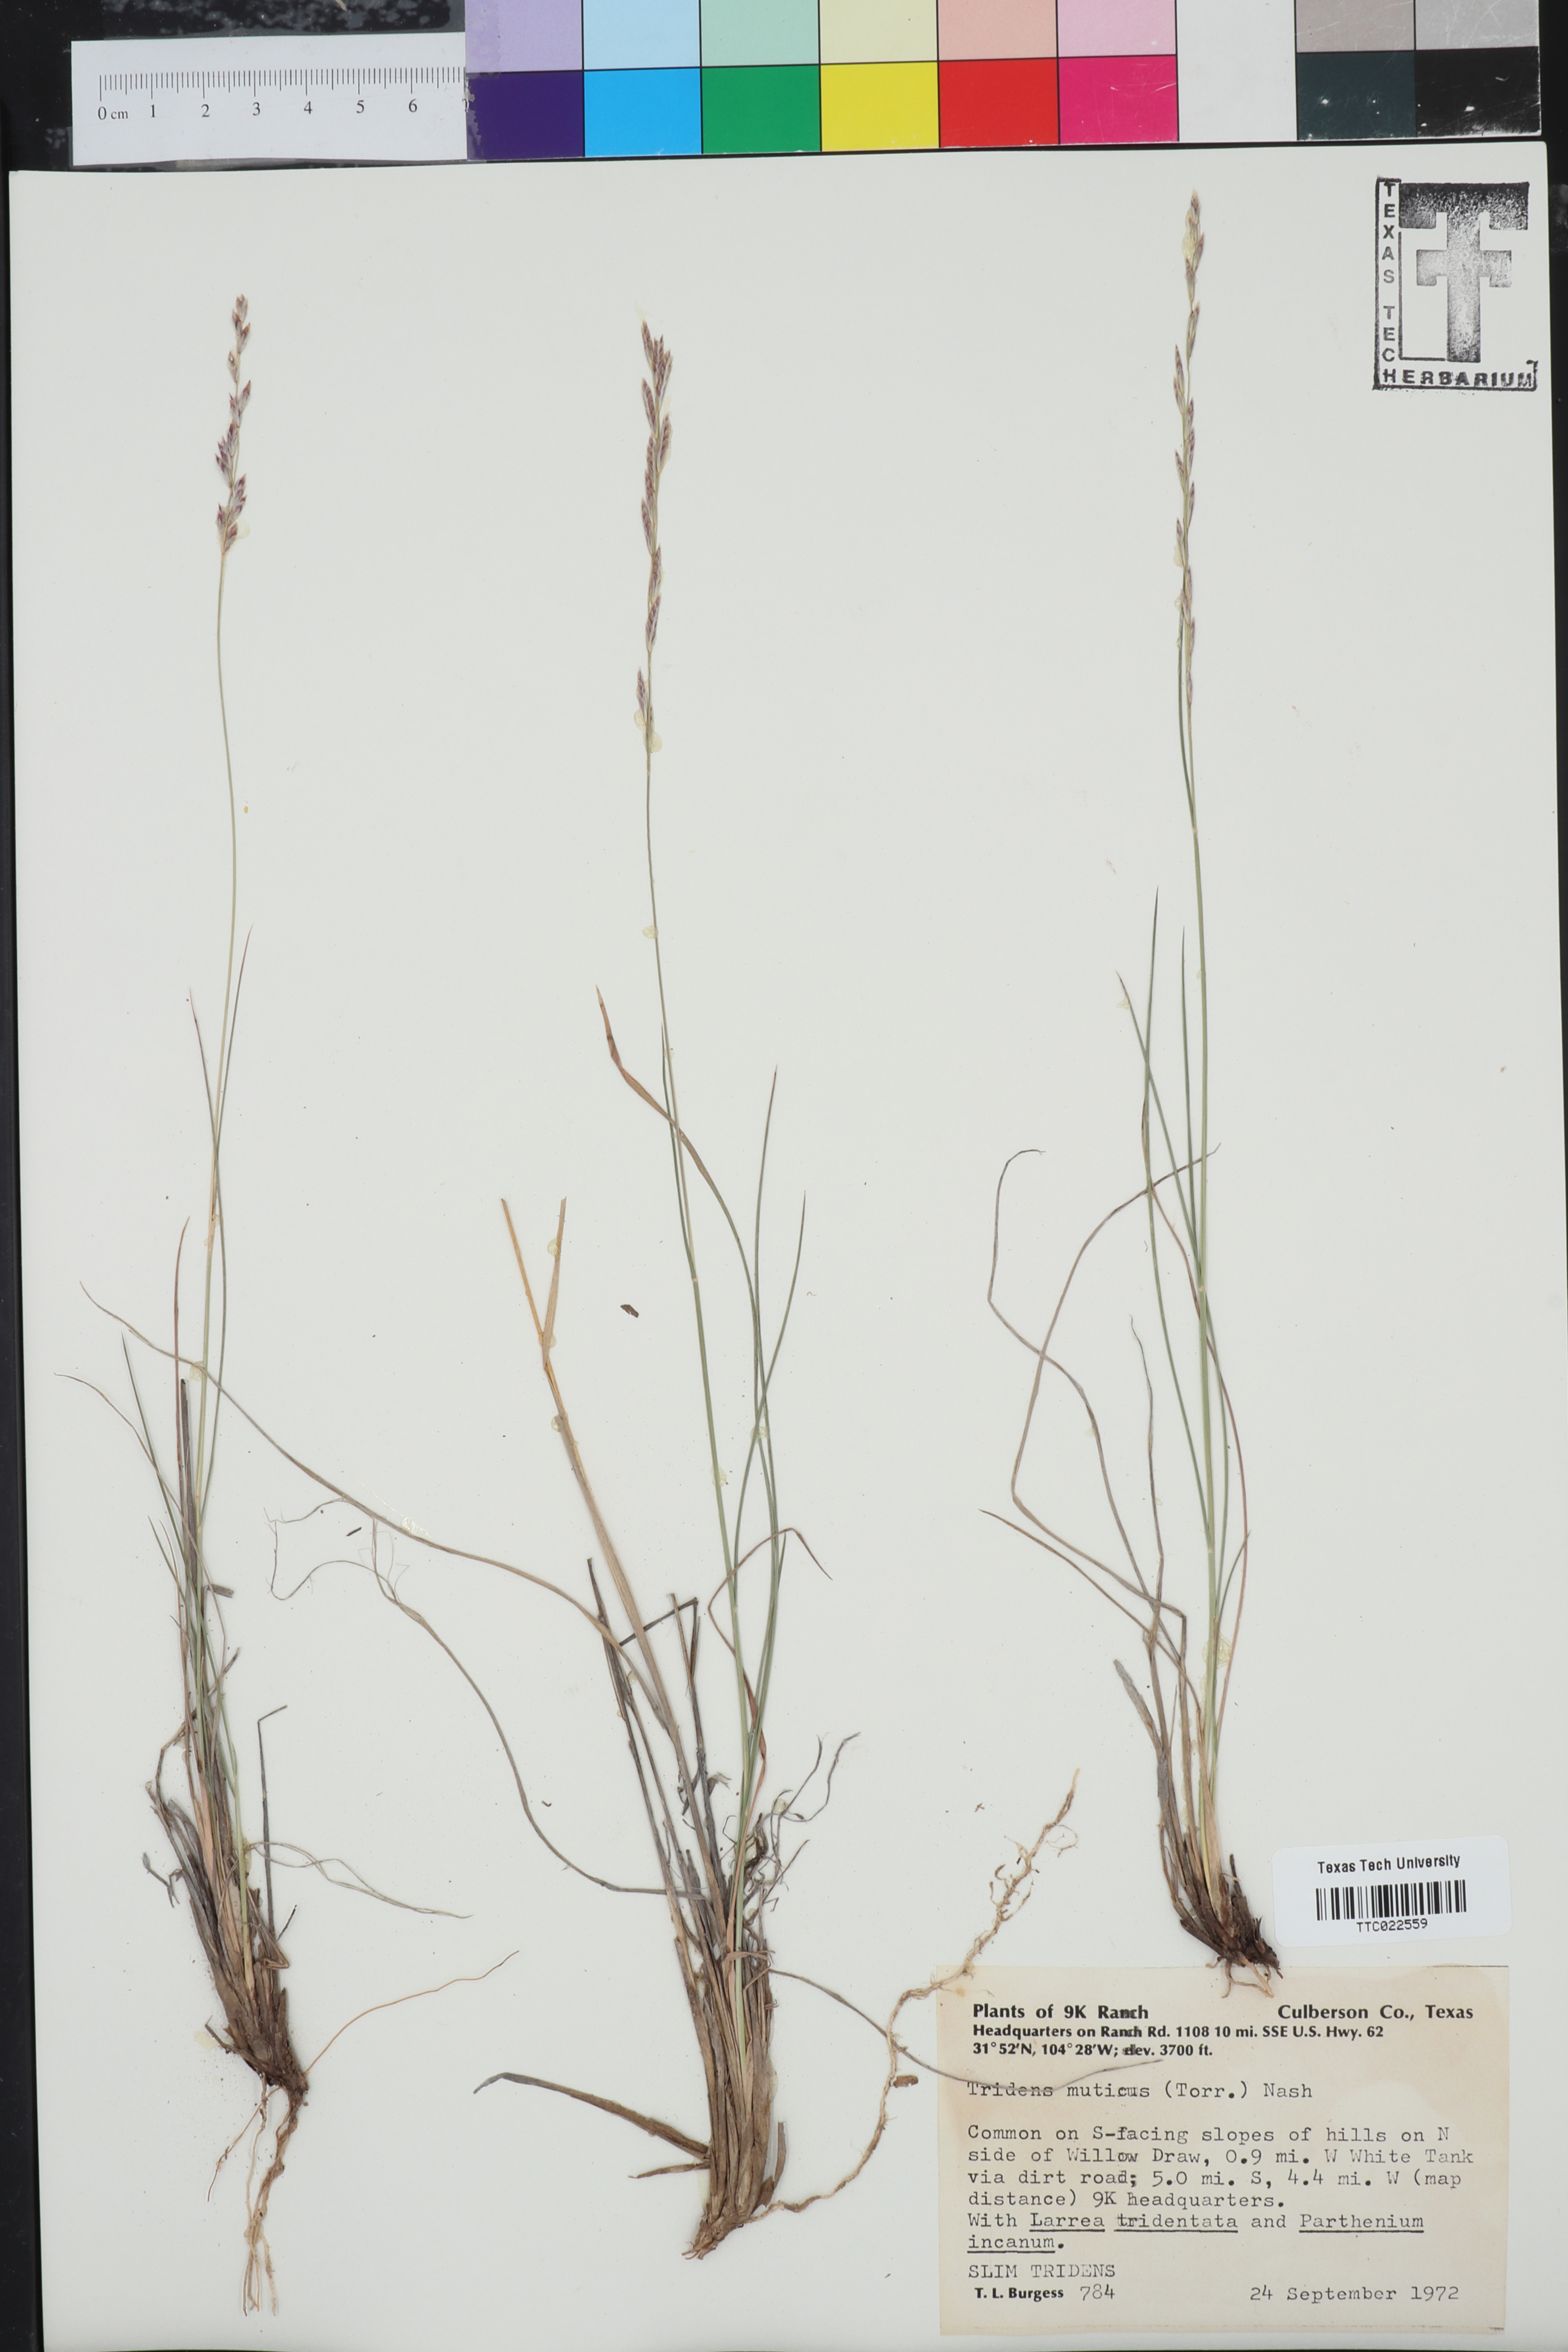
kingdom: Plantae
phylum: Tracheophyta
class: Liliopsida
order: Poales
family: Poaceae
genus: Tridentopsis
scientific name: Tridentopsis mutica
